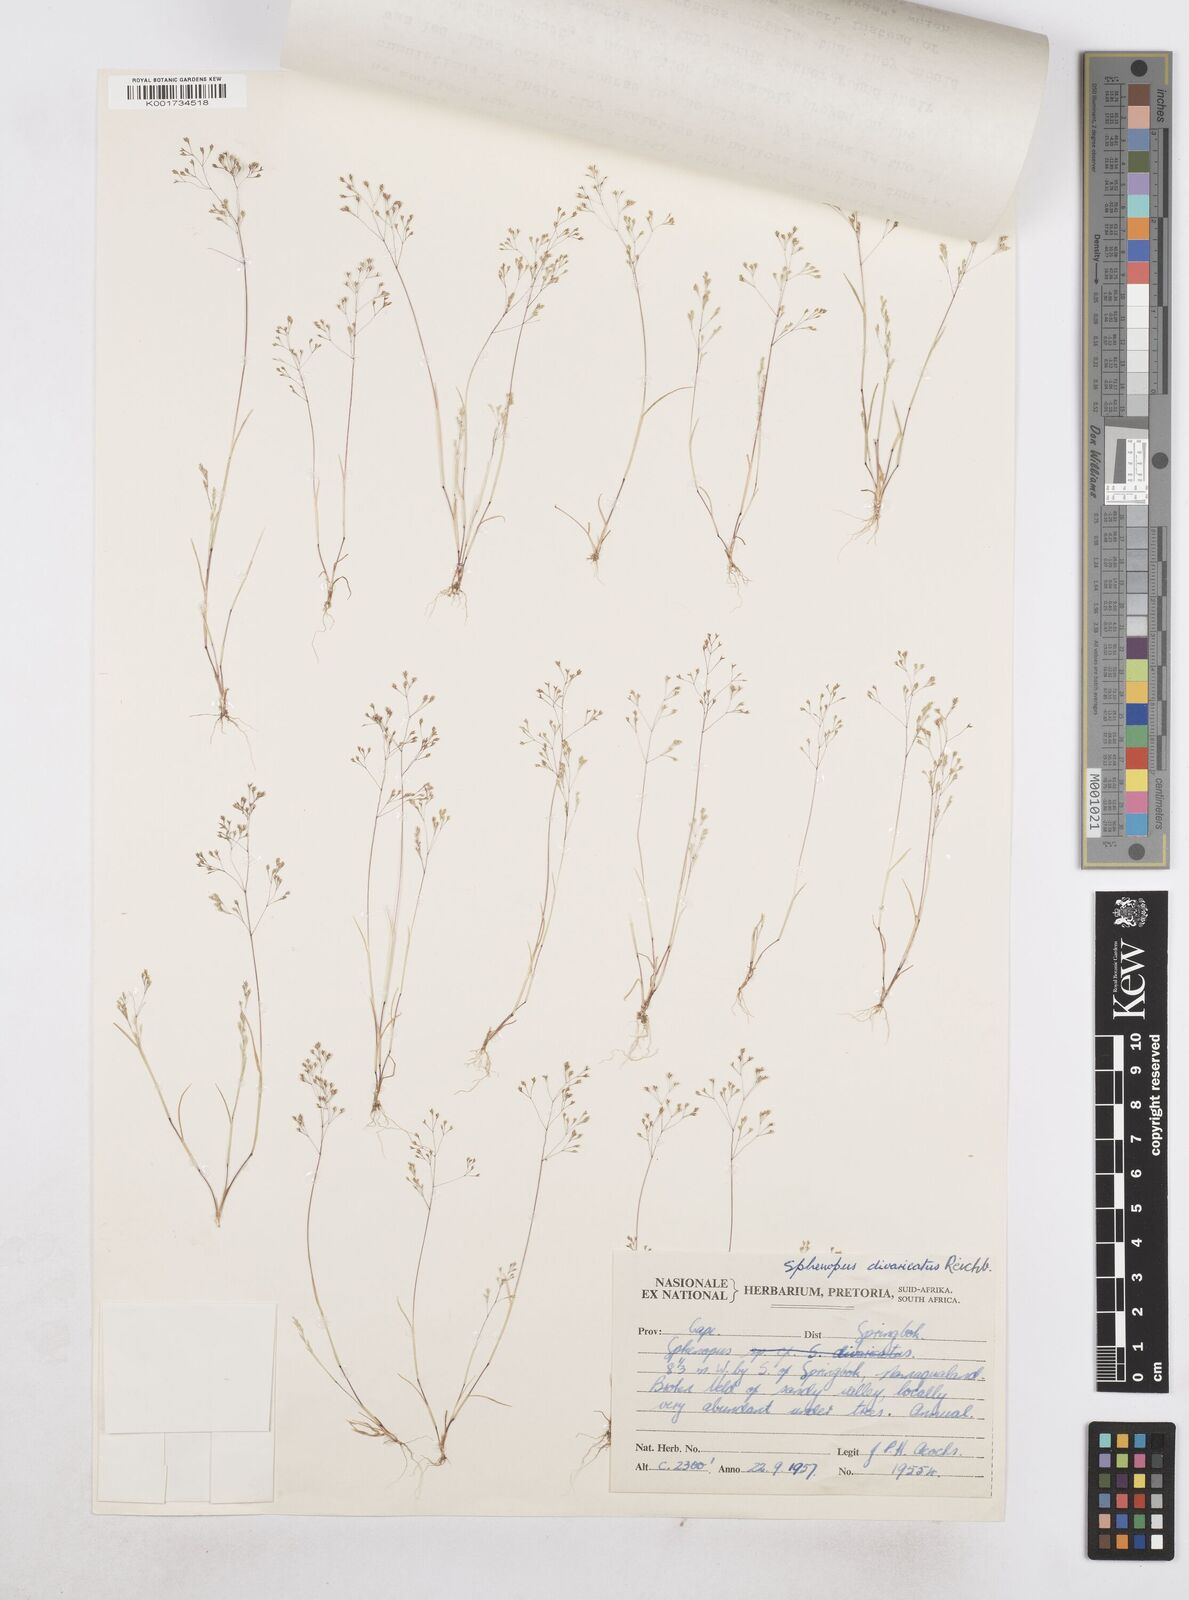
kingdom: Plantae
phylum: Tracheophyta
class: Liliopsida
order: Poales
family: Poaceae
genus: Sphenopus
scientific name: Sphenopus divaricatus
